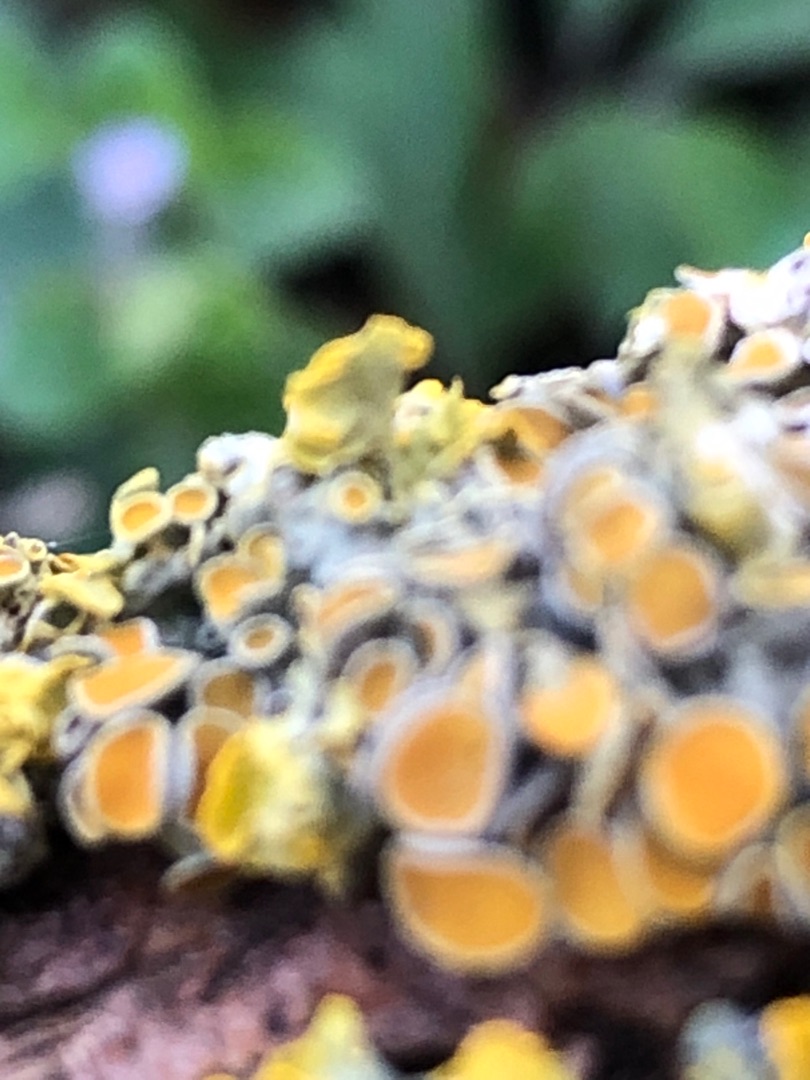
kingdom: Fungi
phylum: Ascomycota
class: Lecanoromycetes
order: Teloschistales
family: Teloschistaceae
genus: Xanthoria
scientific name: Xanthoria parietina
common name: Almindelig væggelav
